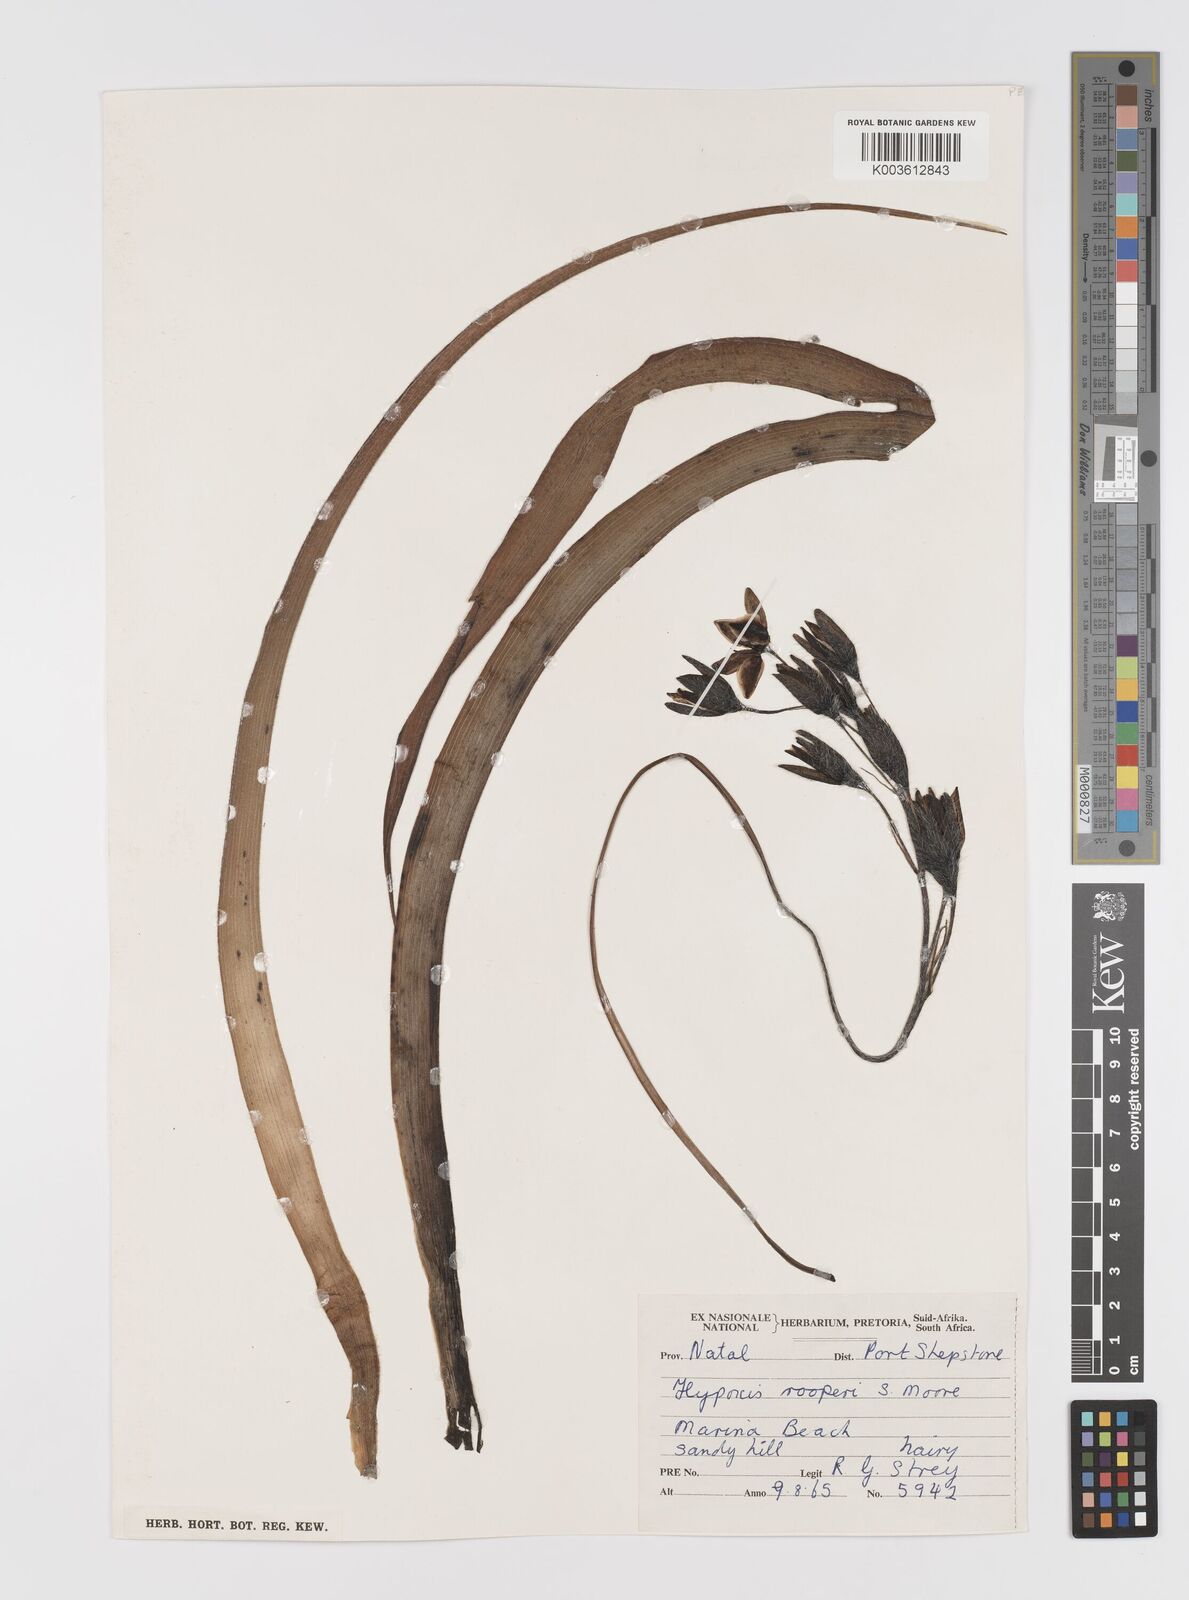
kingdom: Plantae
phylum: Tracheophyta
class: Liliopsida
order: Asparagales
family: Hypoxidaceae
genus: Hypoxis
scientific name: Hypoxis hemerocallidea
